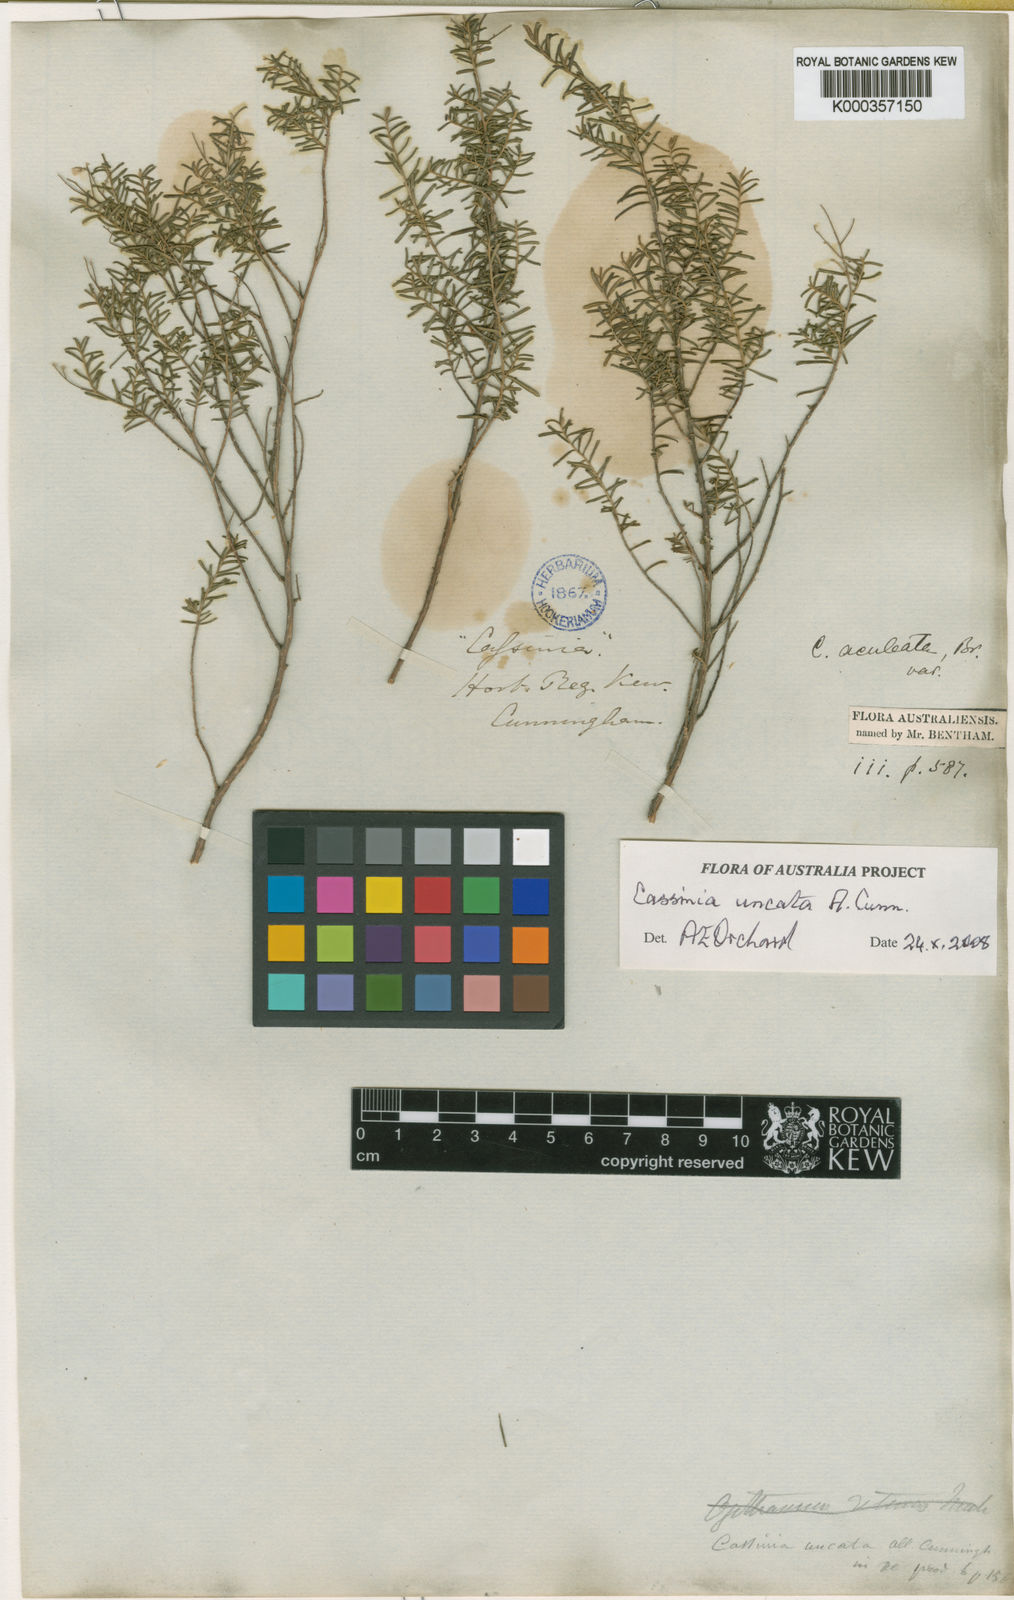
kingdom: Plantae
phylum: Tracheophyta
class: Magnoliopsida
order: Asterales
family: Asteraceae
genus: Cassinia
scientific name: Cassinia uncata
